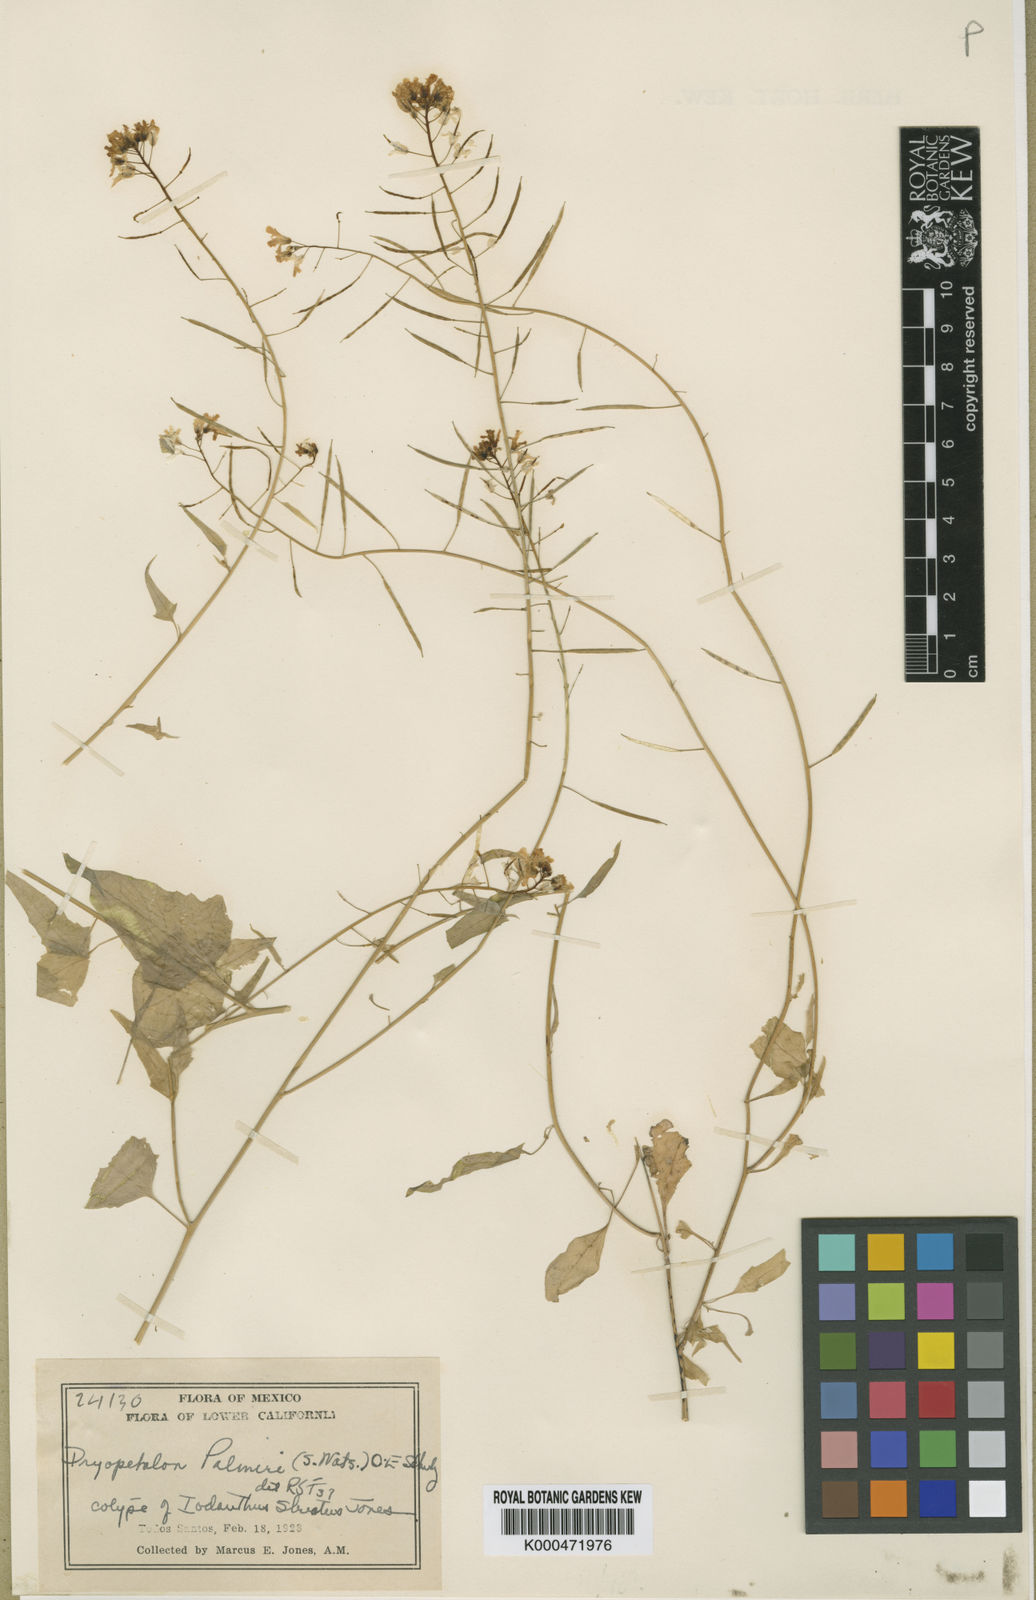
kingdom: Plantae
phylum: Tracheophyta
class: Magnoliopsida
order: Brassicales
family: Brassicaceae
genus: Dryopetalon
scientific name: Dryopetalon palmeri
